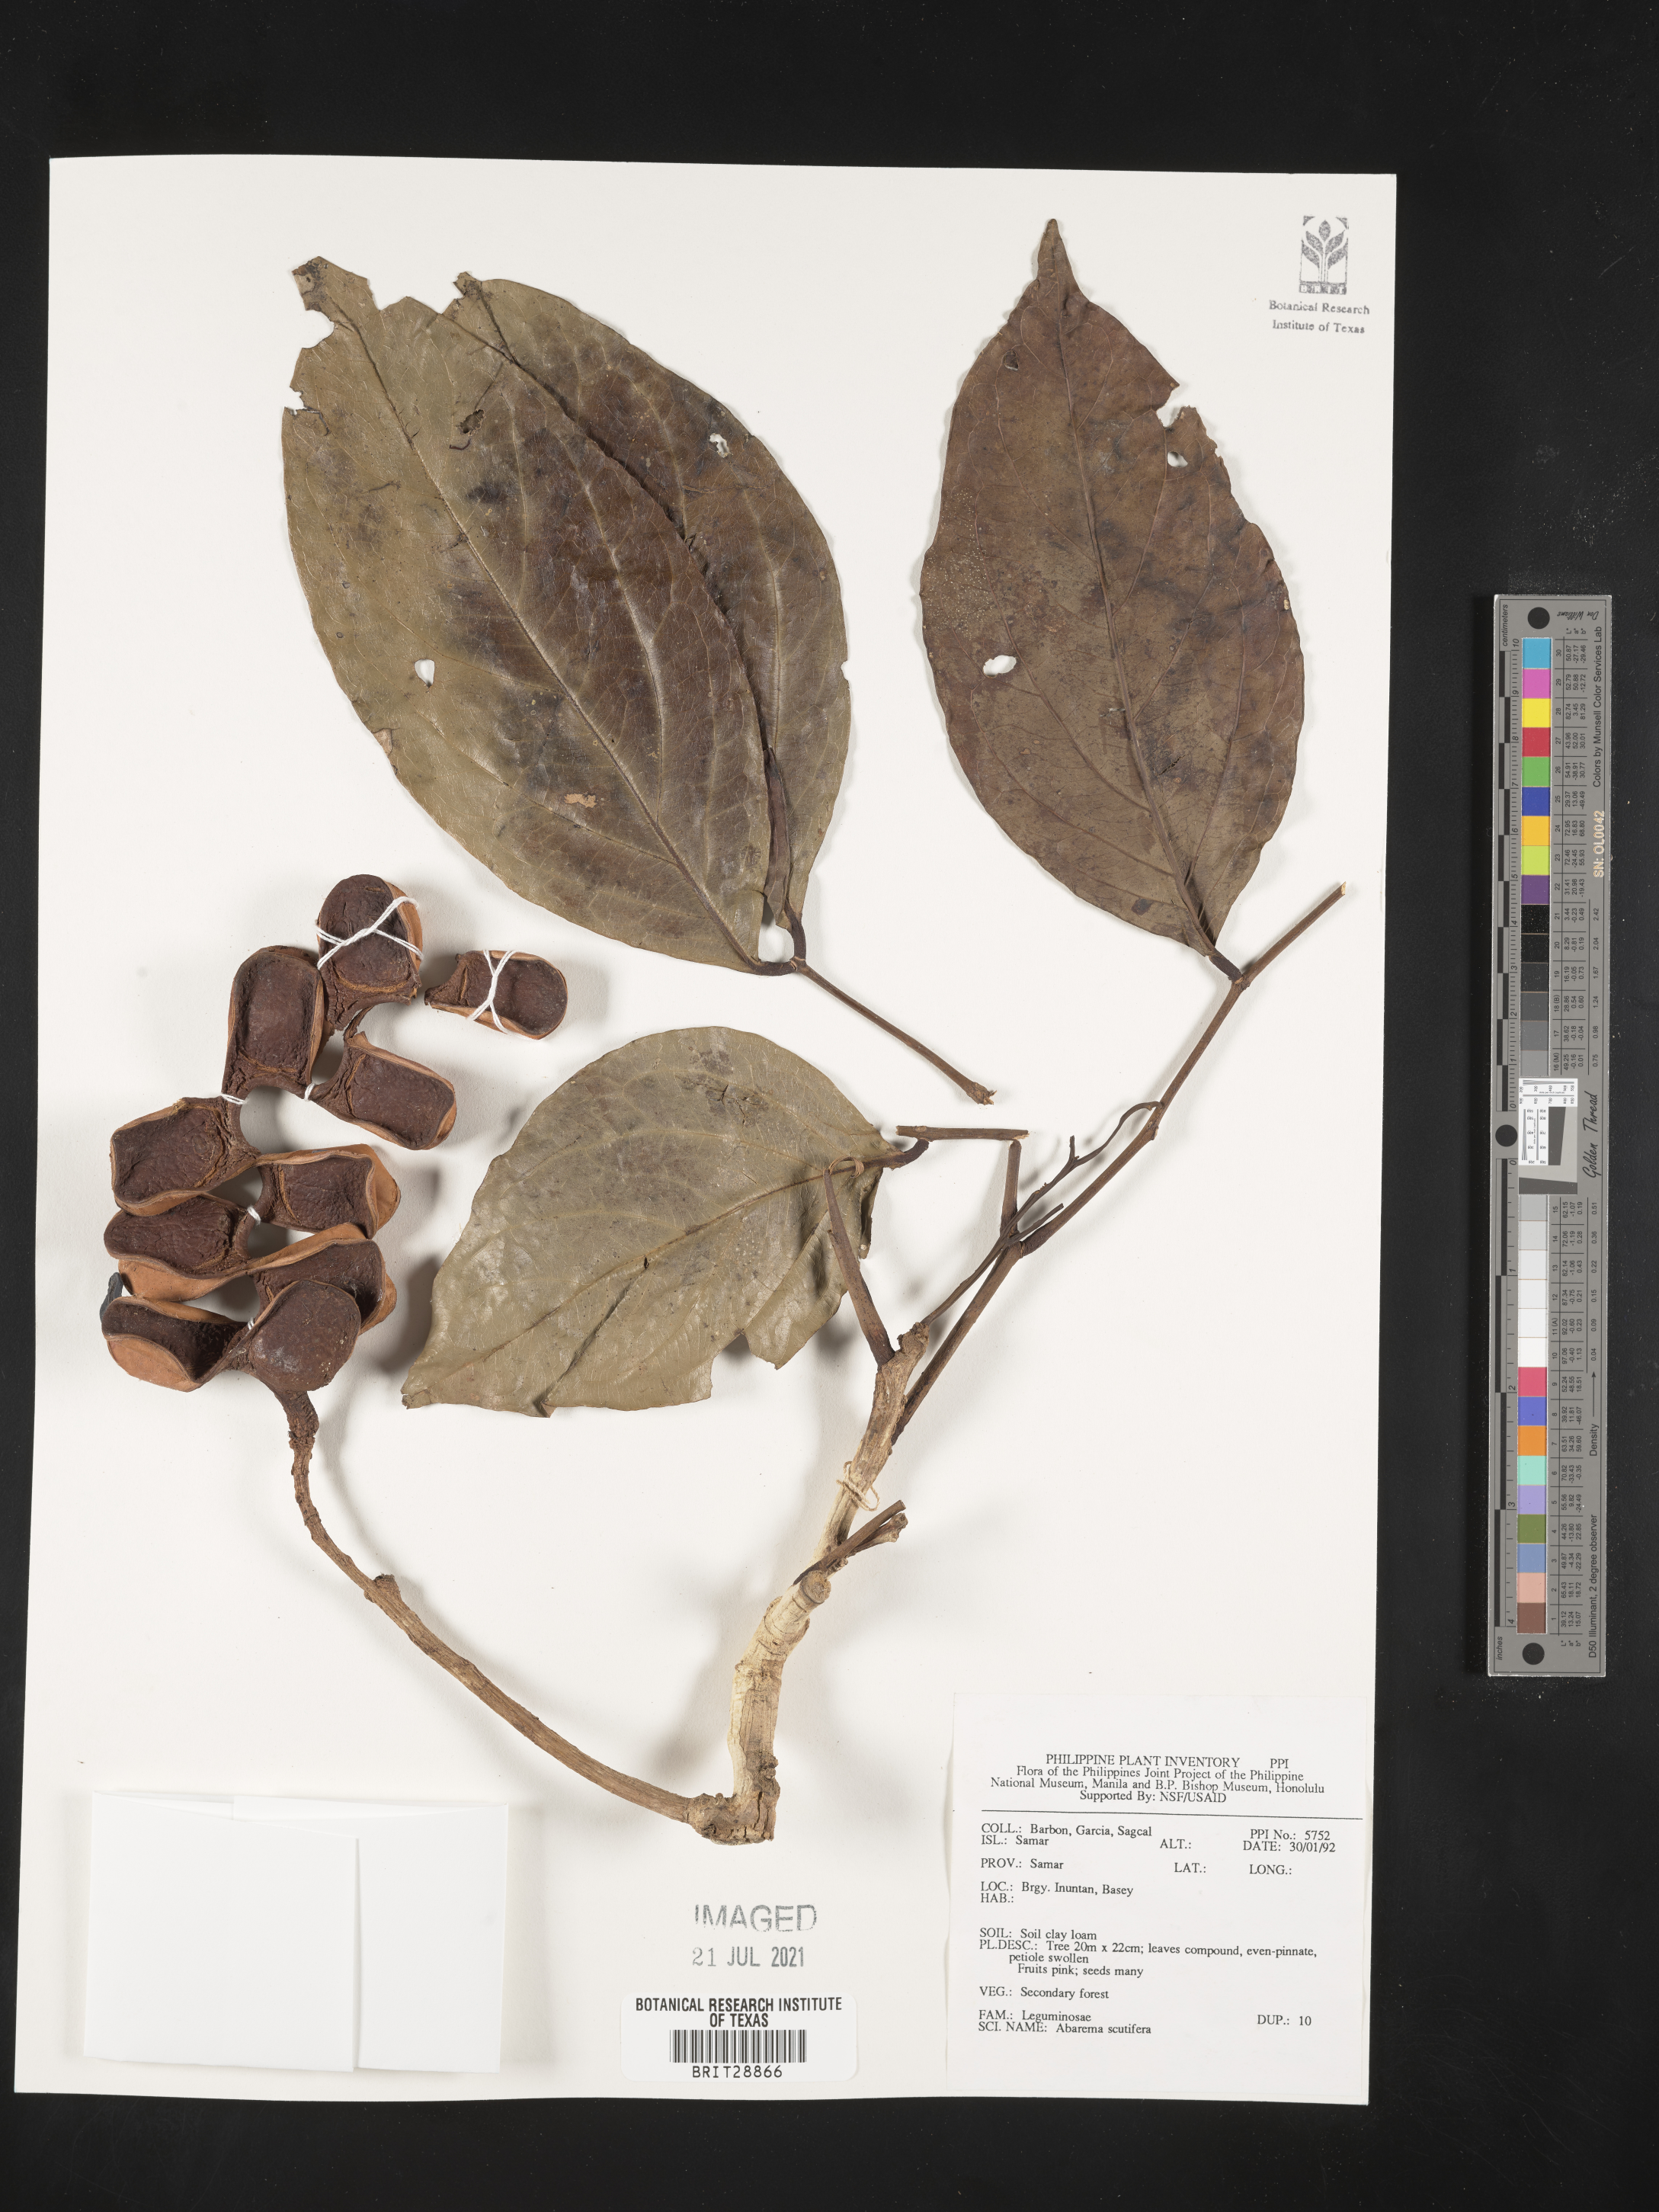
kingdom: Plantae
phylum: Tracheophyta
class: Magnoliopsida
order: Fabales
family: Fabaceae
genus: Archidendron
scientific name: Archidendron scutiferum
